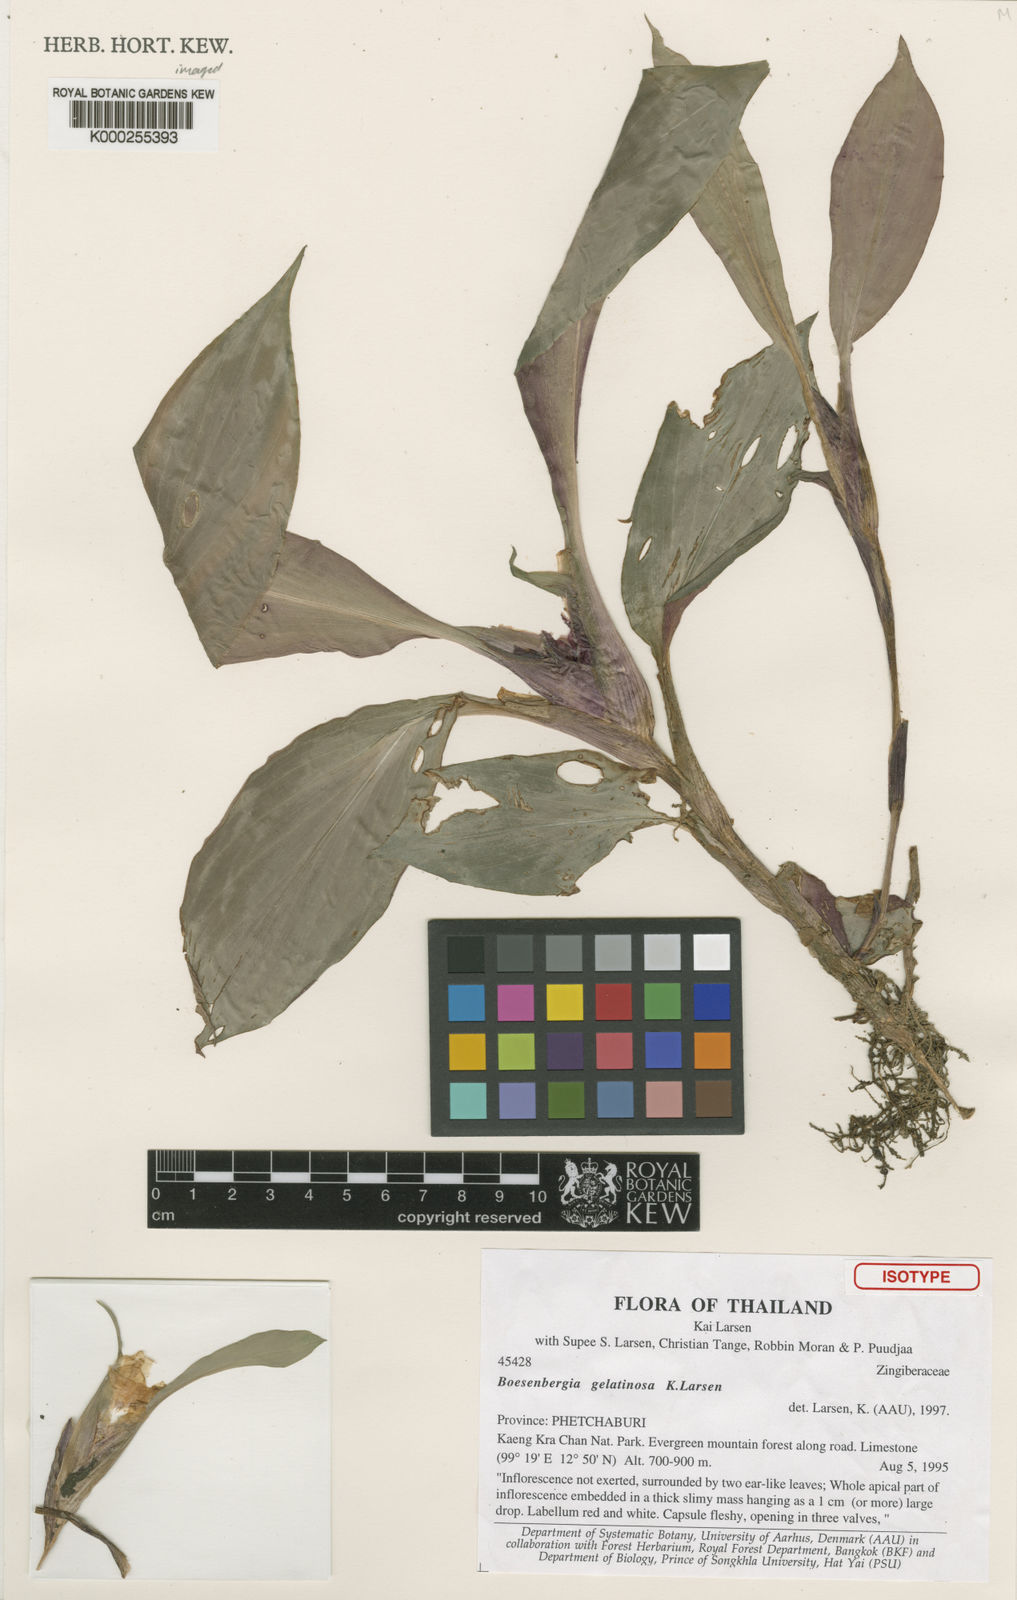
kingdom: Plantae
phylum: Tracheophyta
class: Liliopsida
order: Zingiberales
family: Zingiberaceae
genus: Boesenbergia
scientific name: Boesenbergia parvula
